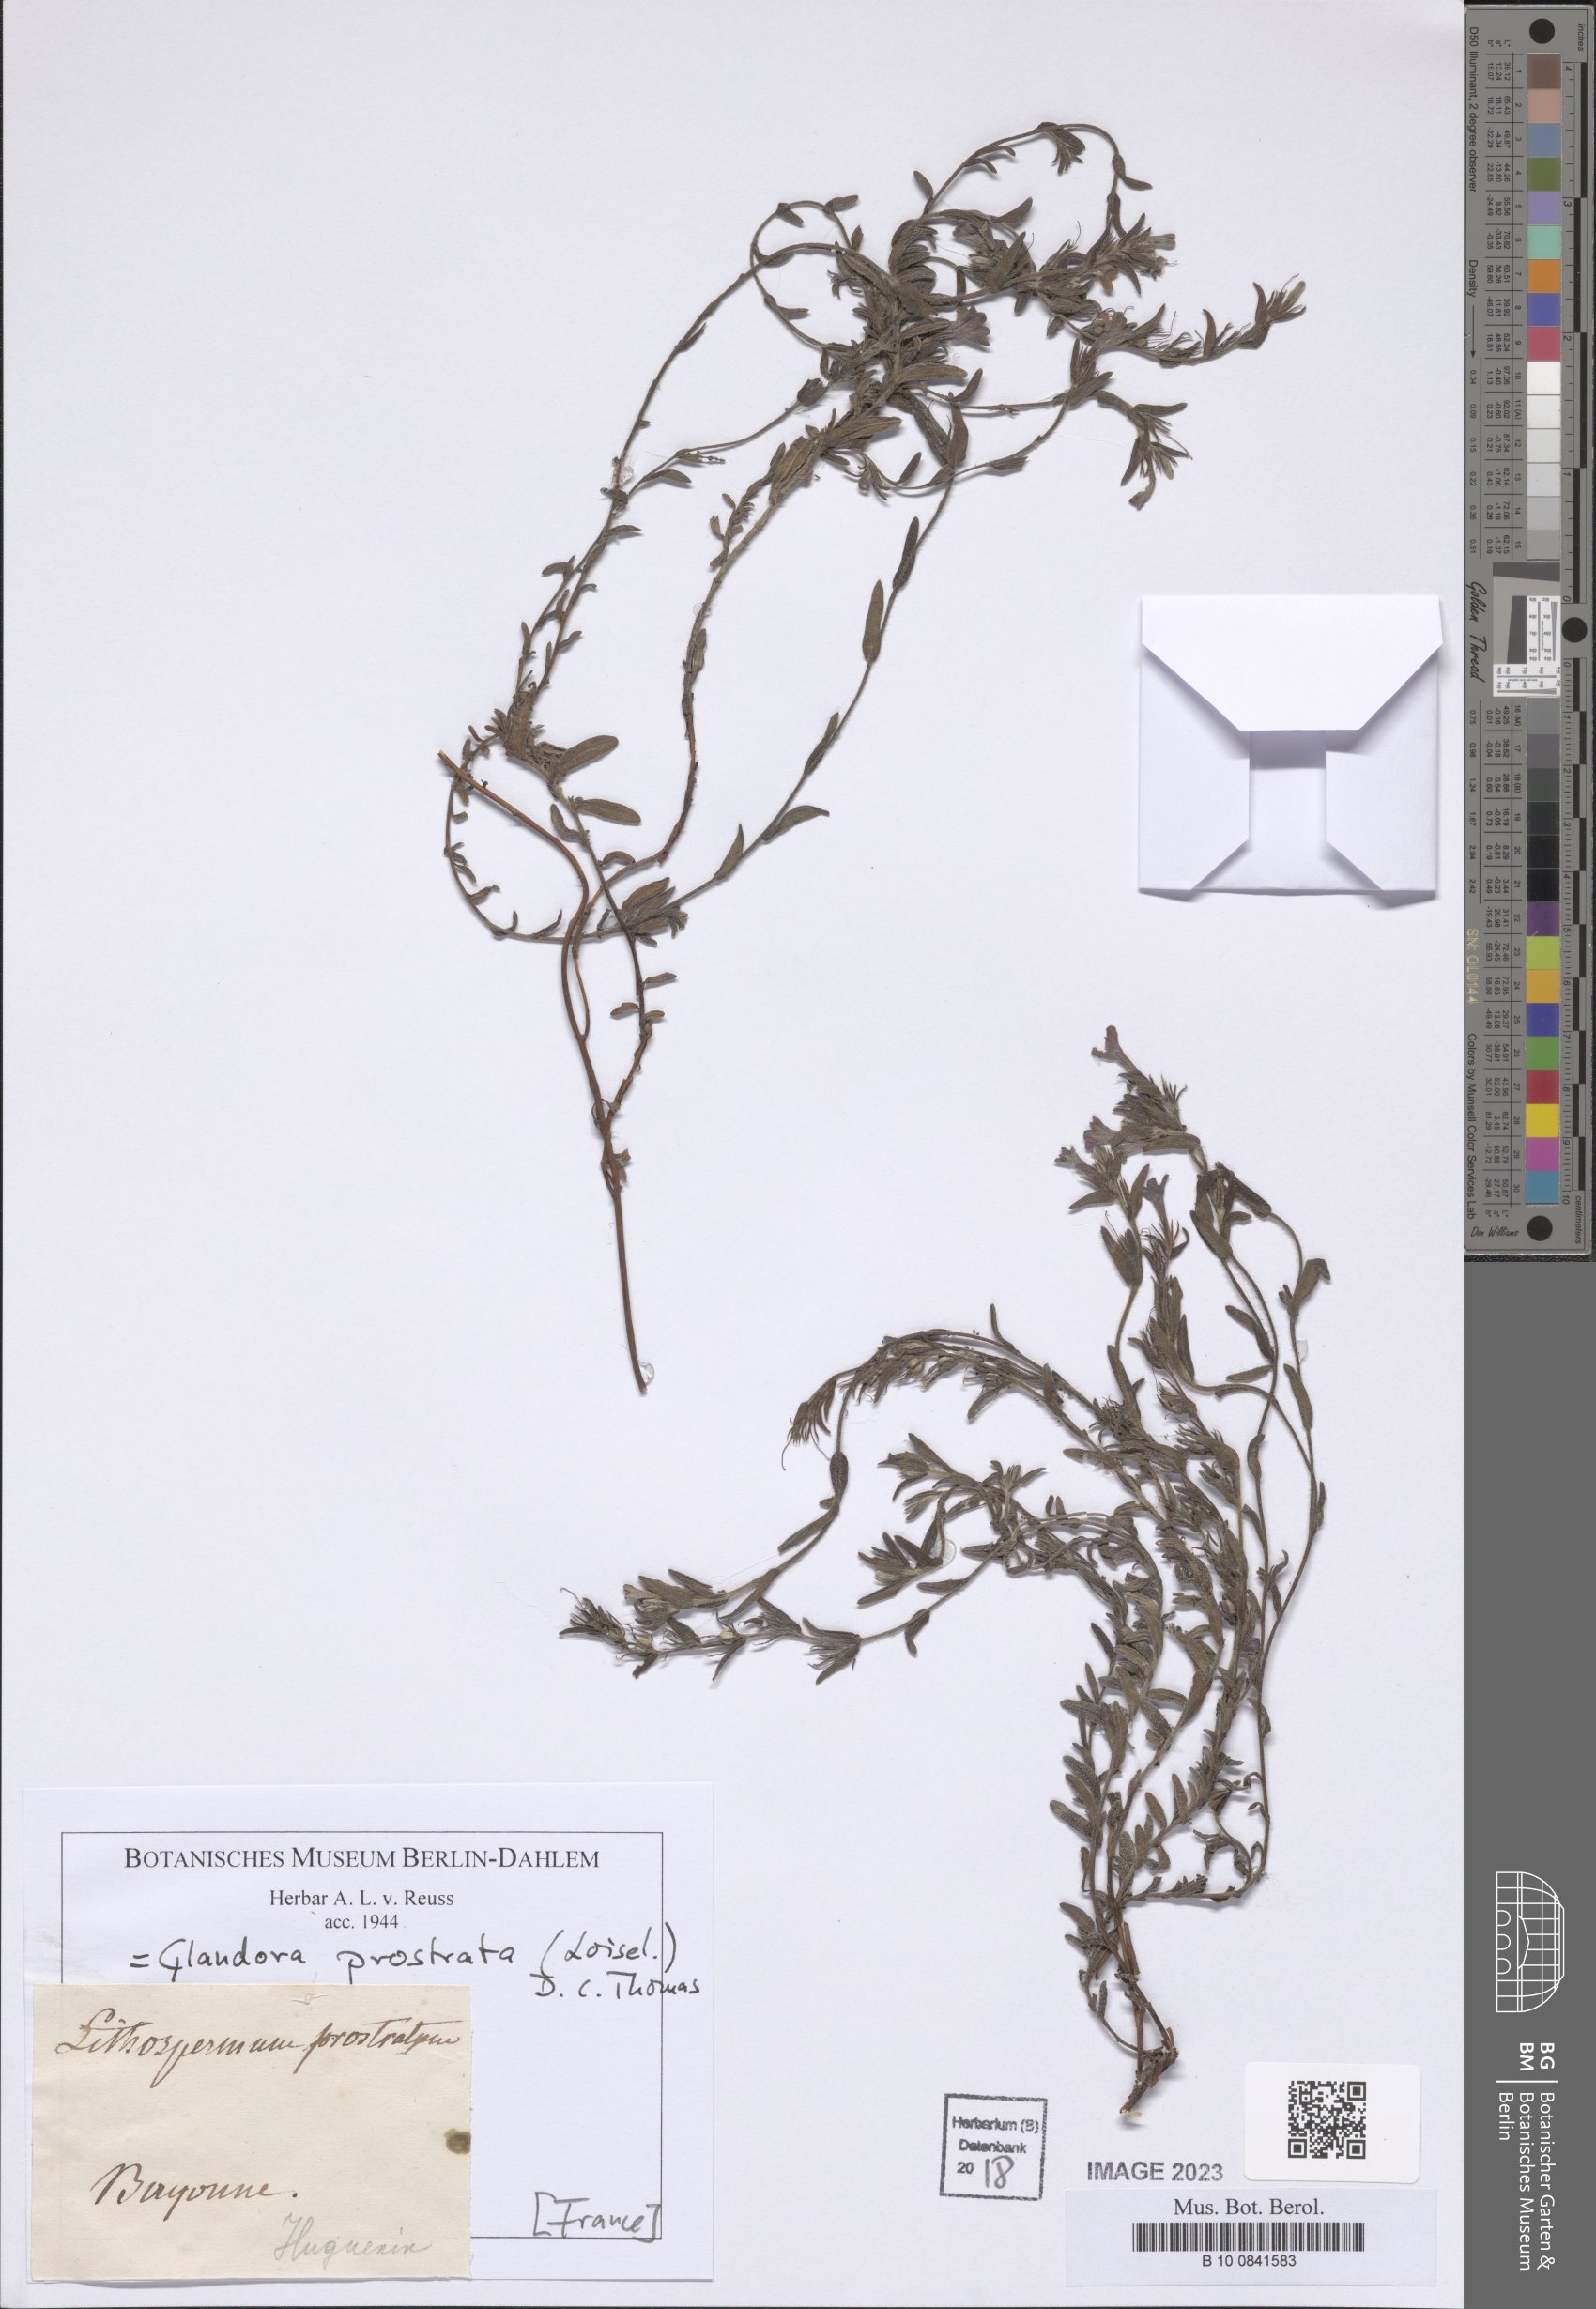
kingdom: Plantae
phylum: Tracheophyta
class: Magnoliopsida
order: Boraginales
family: Boraginaceae
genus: Glandora
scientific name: Glandora prostrata
